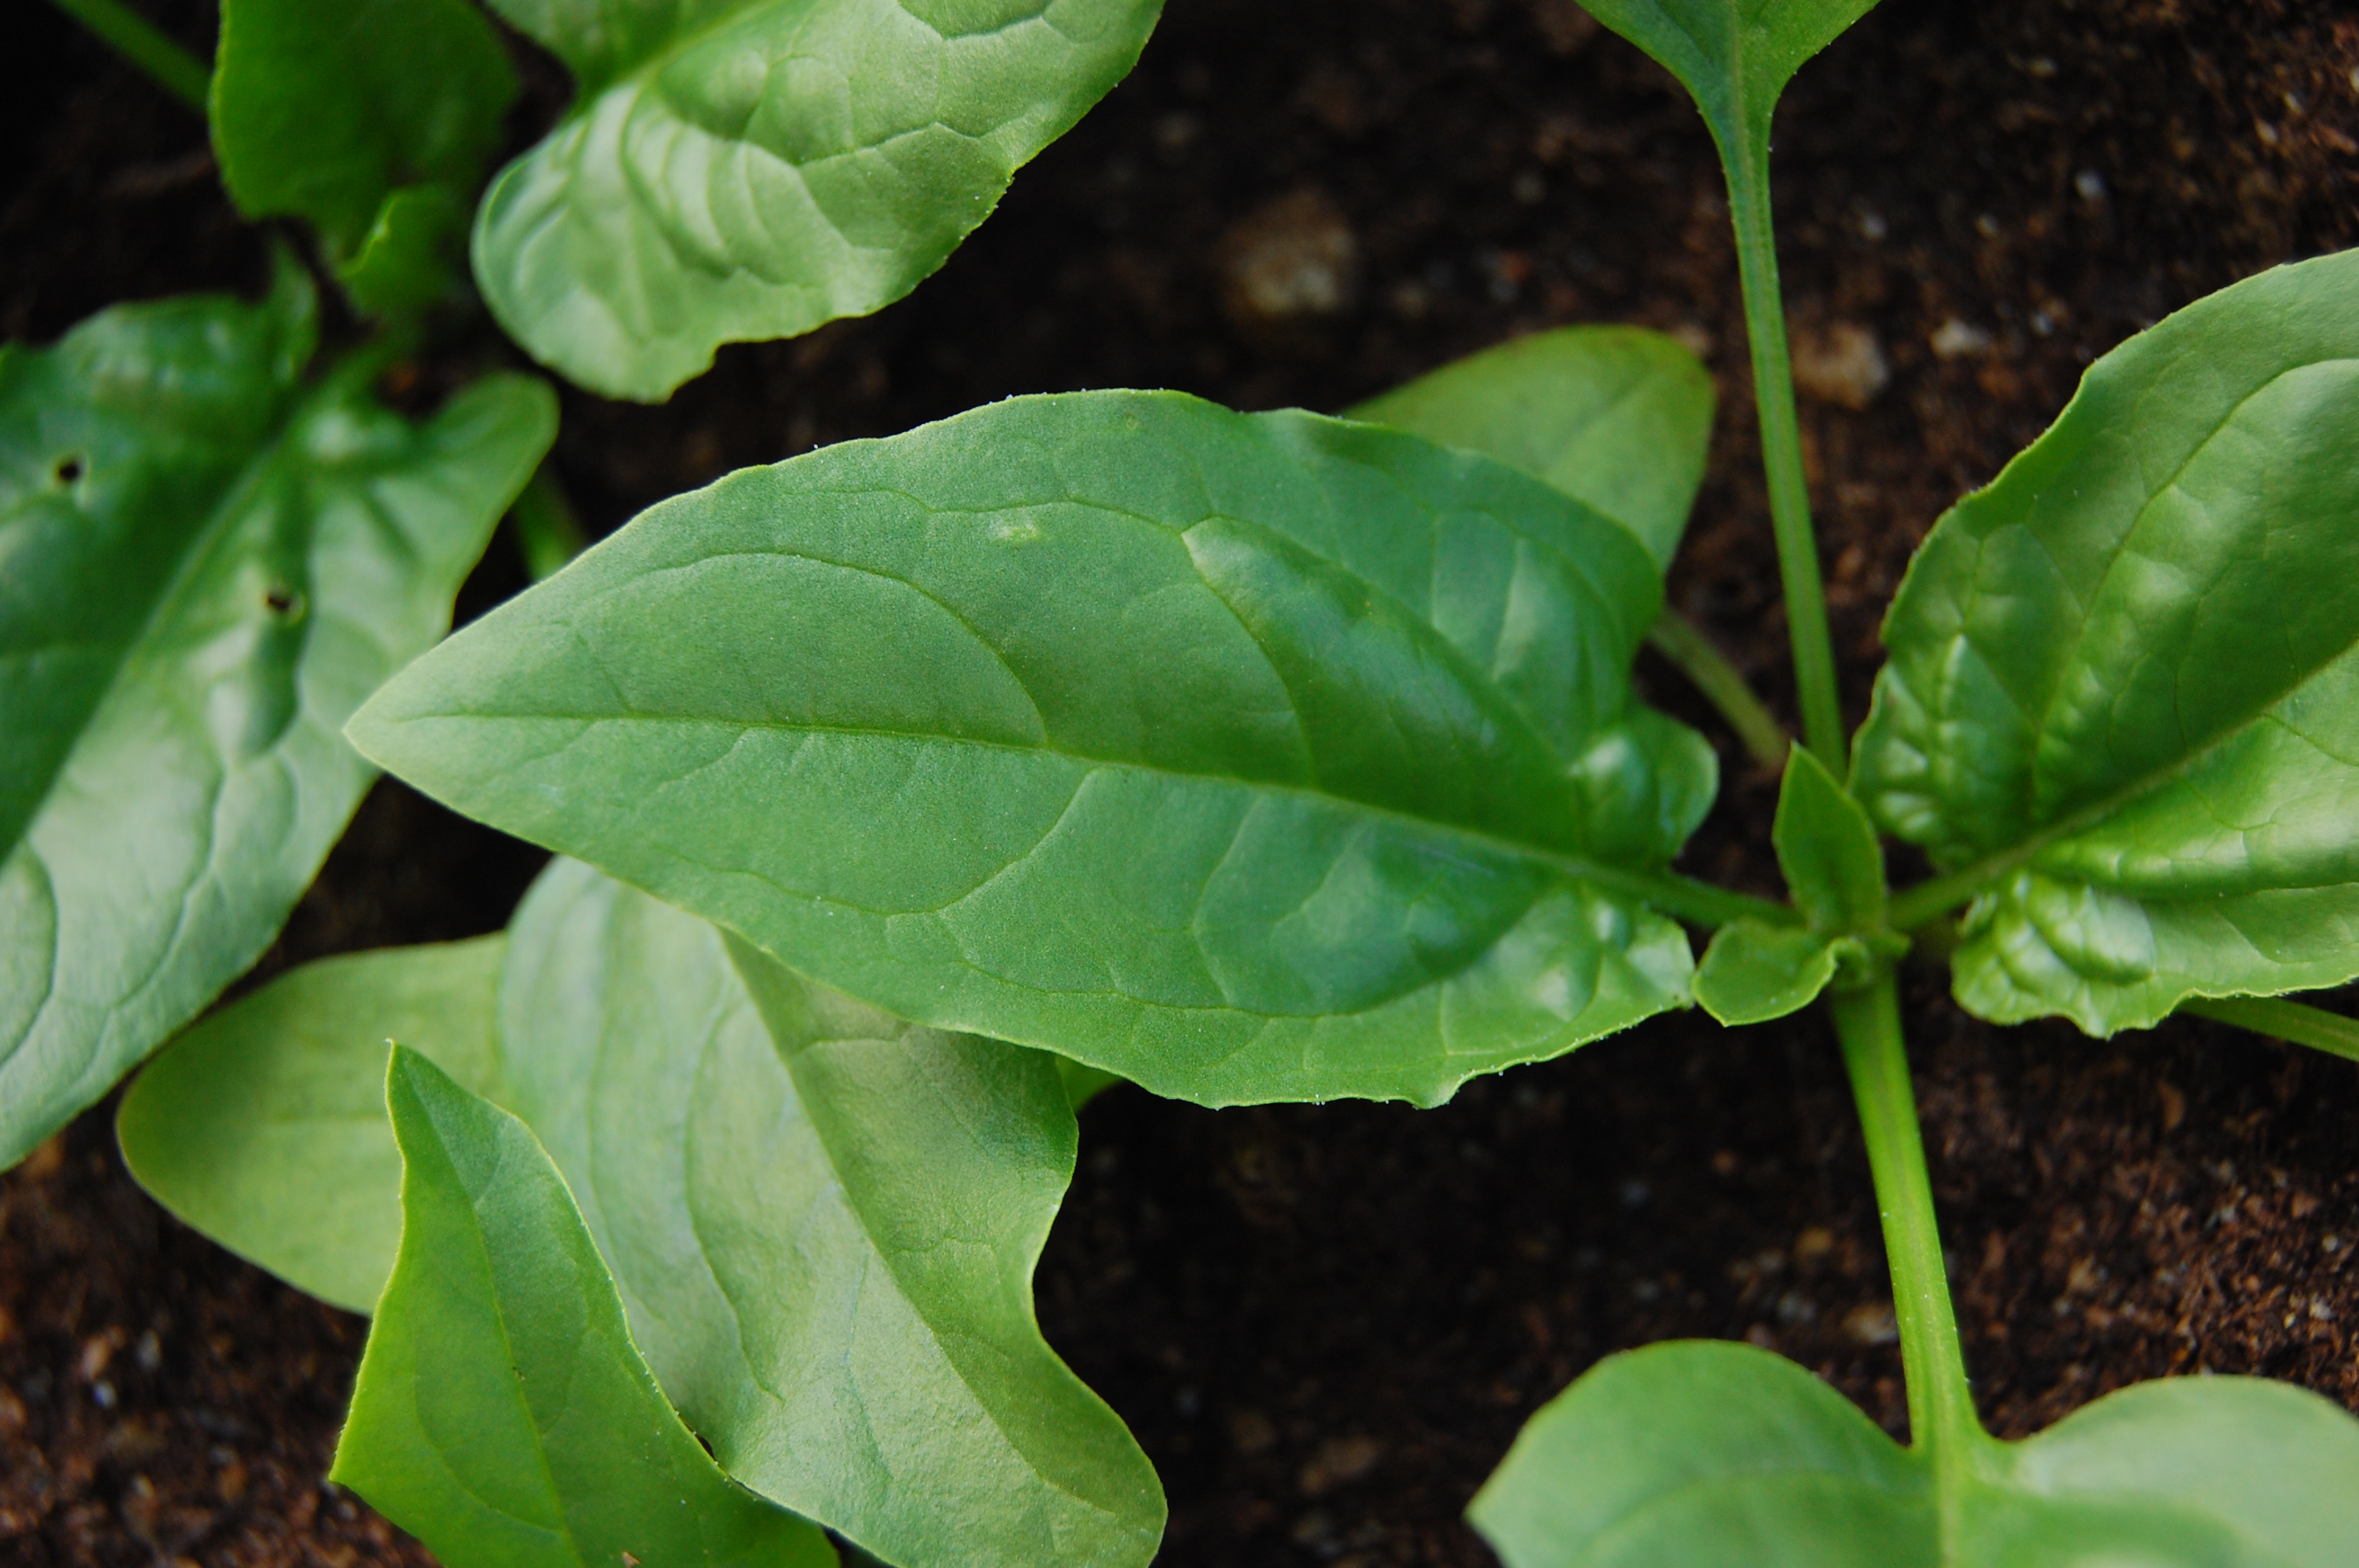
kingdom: Plantae
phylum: Tracheophyta
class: Magnoliopsida
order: Caryophyllales
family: Amaranthaceae
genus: Spinacia
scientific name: Spinacia oleracea
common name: Spinach
